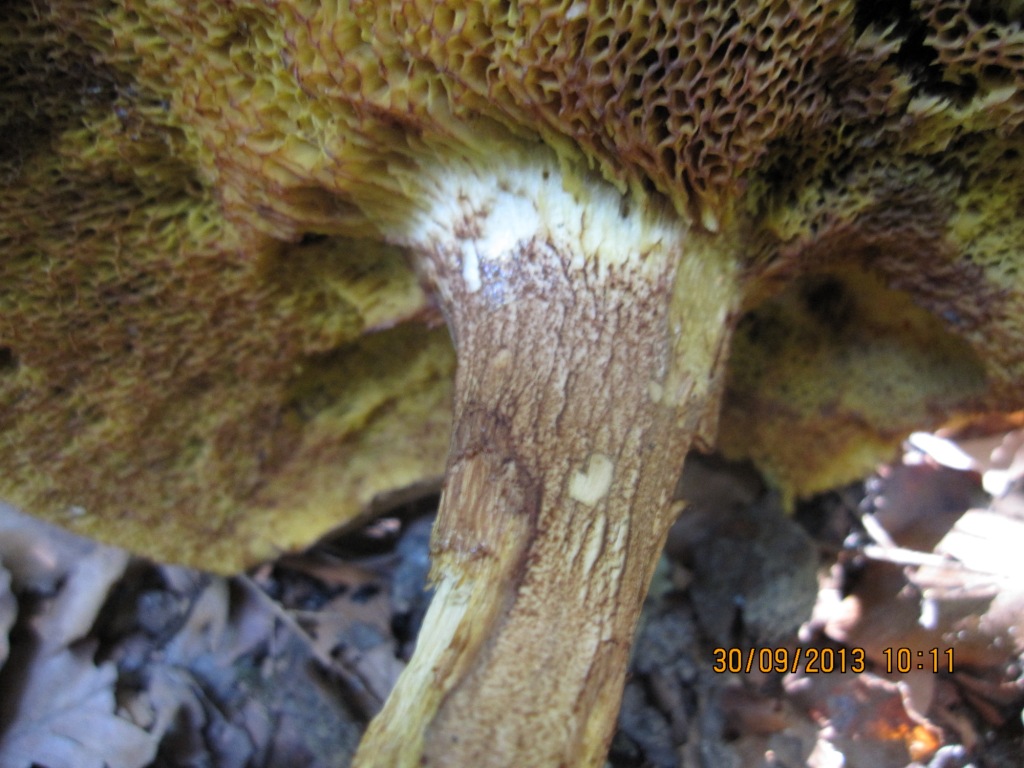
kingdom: Fungi
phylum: Basidiomycota
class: Agaricomycetes
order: Boletales
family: Boletaceae
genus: Xerocomus
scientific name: Xerocomus ferrugineus
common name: vaskeskinds-rørhat
